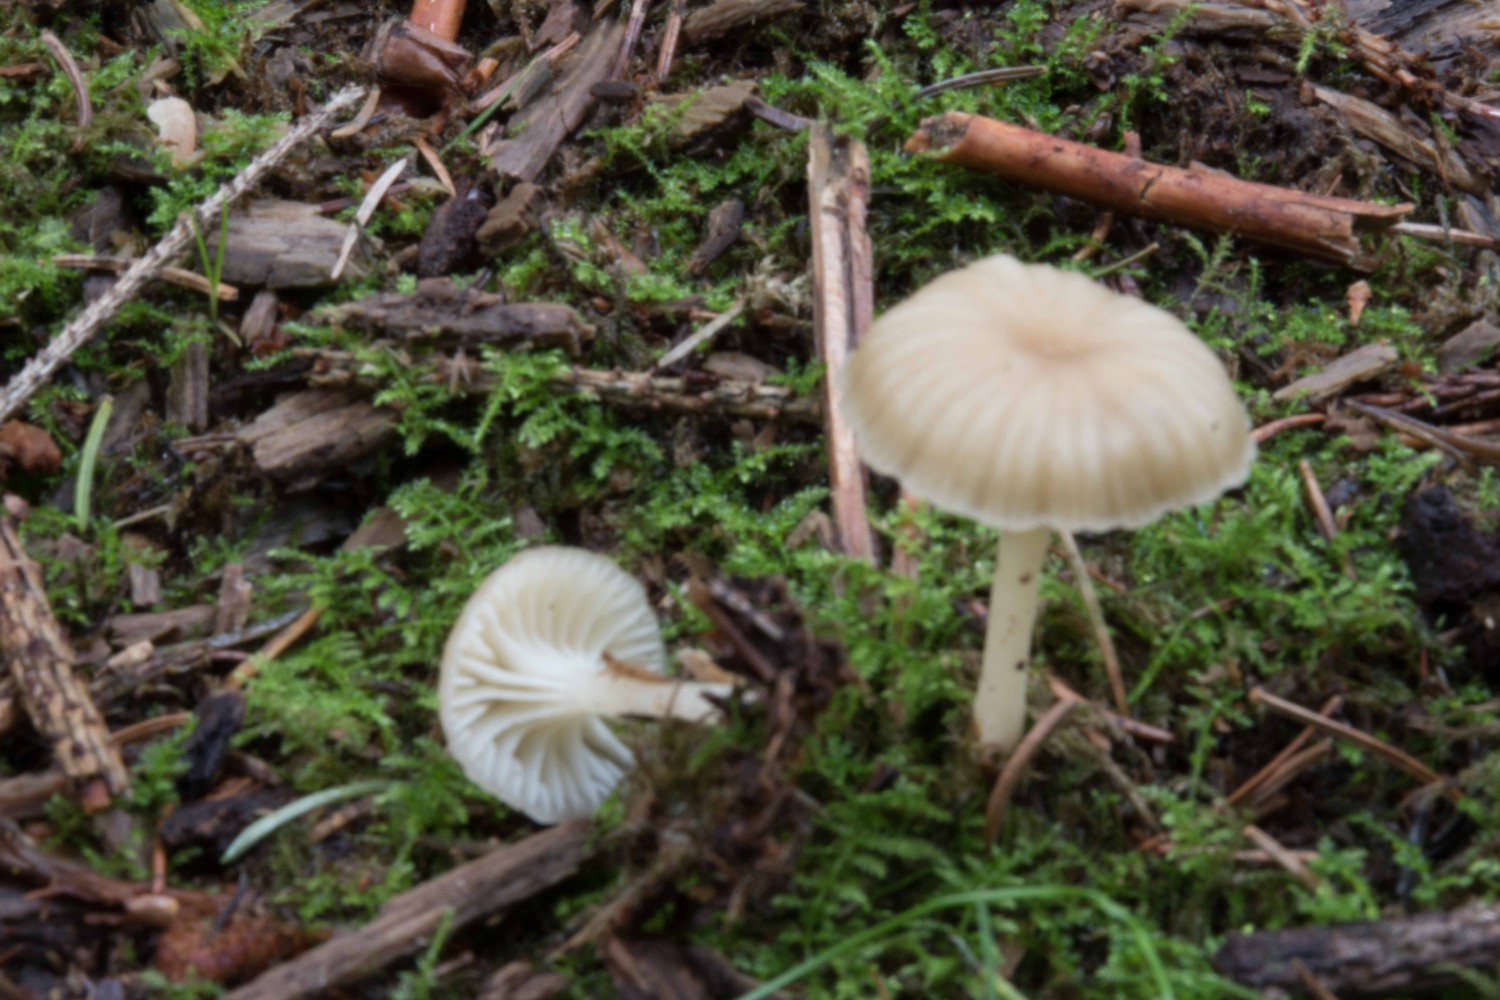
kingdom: Fungi
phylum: Basidiomycota
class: Agaricomycetes
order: Agaricales
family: Hygrophoraceae
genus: Chrysomphalina
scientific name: Chrysomphalina grossula
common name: stød-gyldenblad
